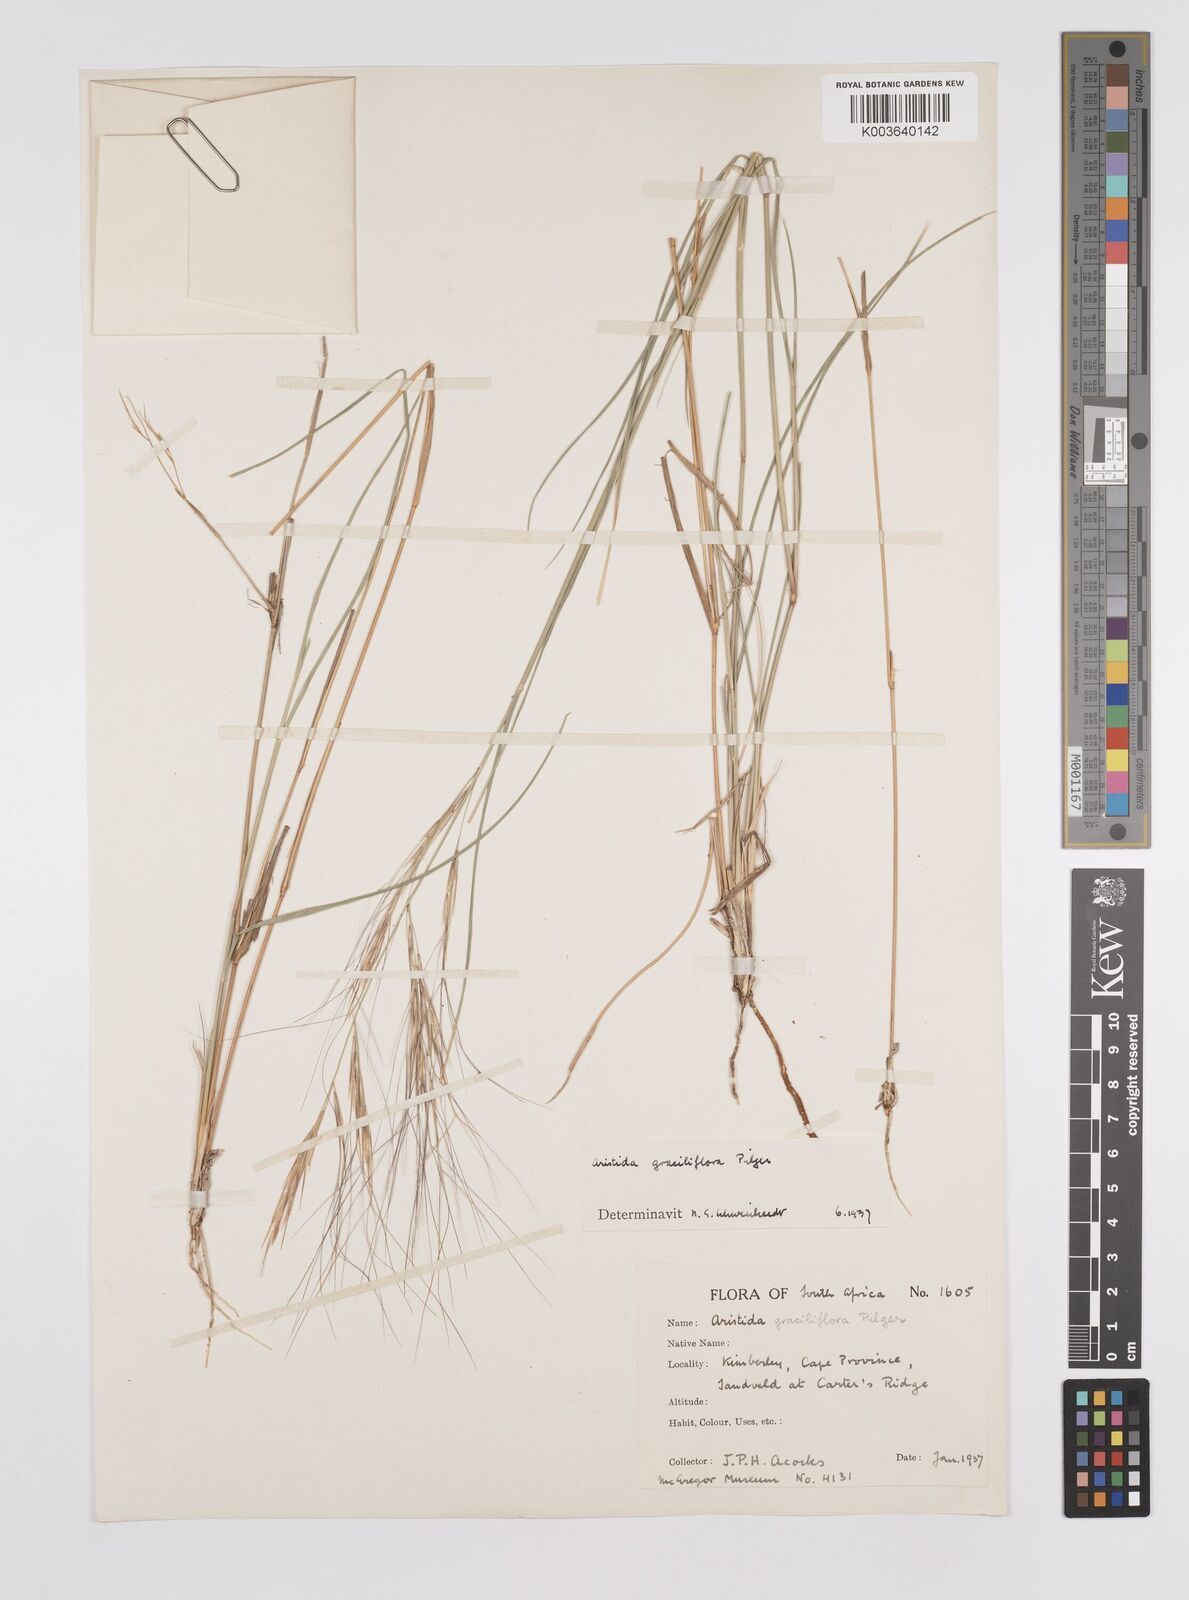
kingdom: Plantae
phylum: Tracheophyta
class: Liliopsida
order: Poales
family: Poaceae
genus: Aristida
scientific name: Aristida stipitata
